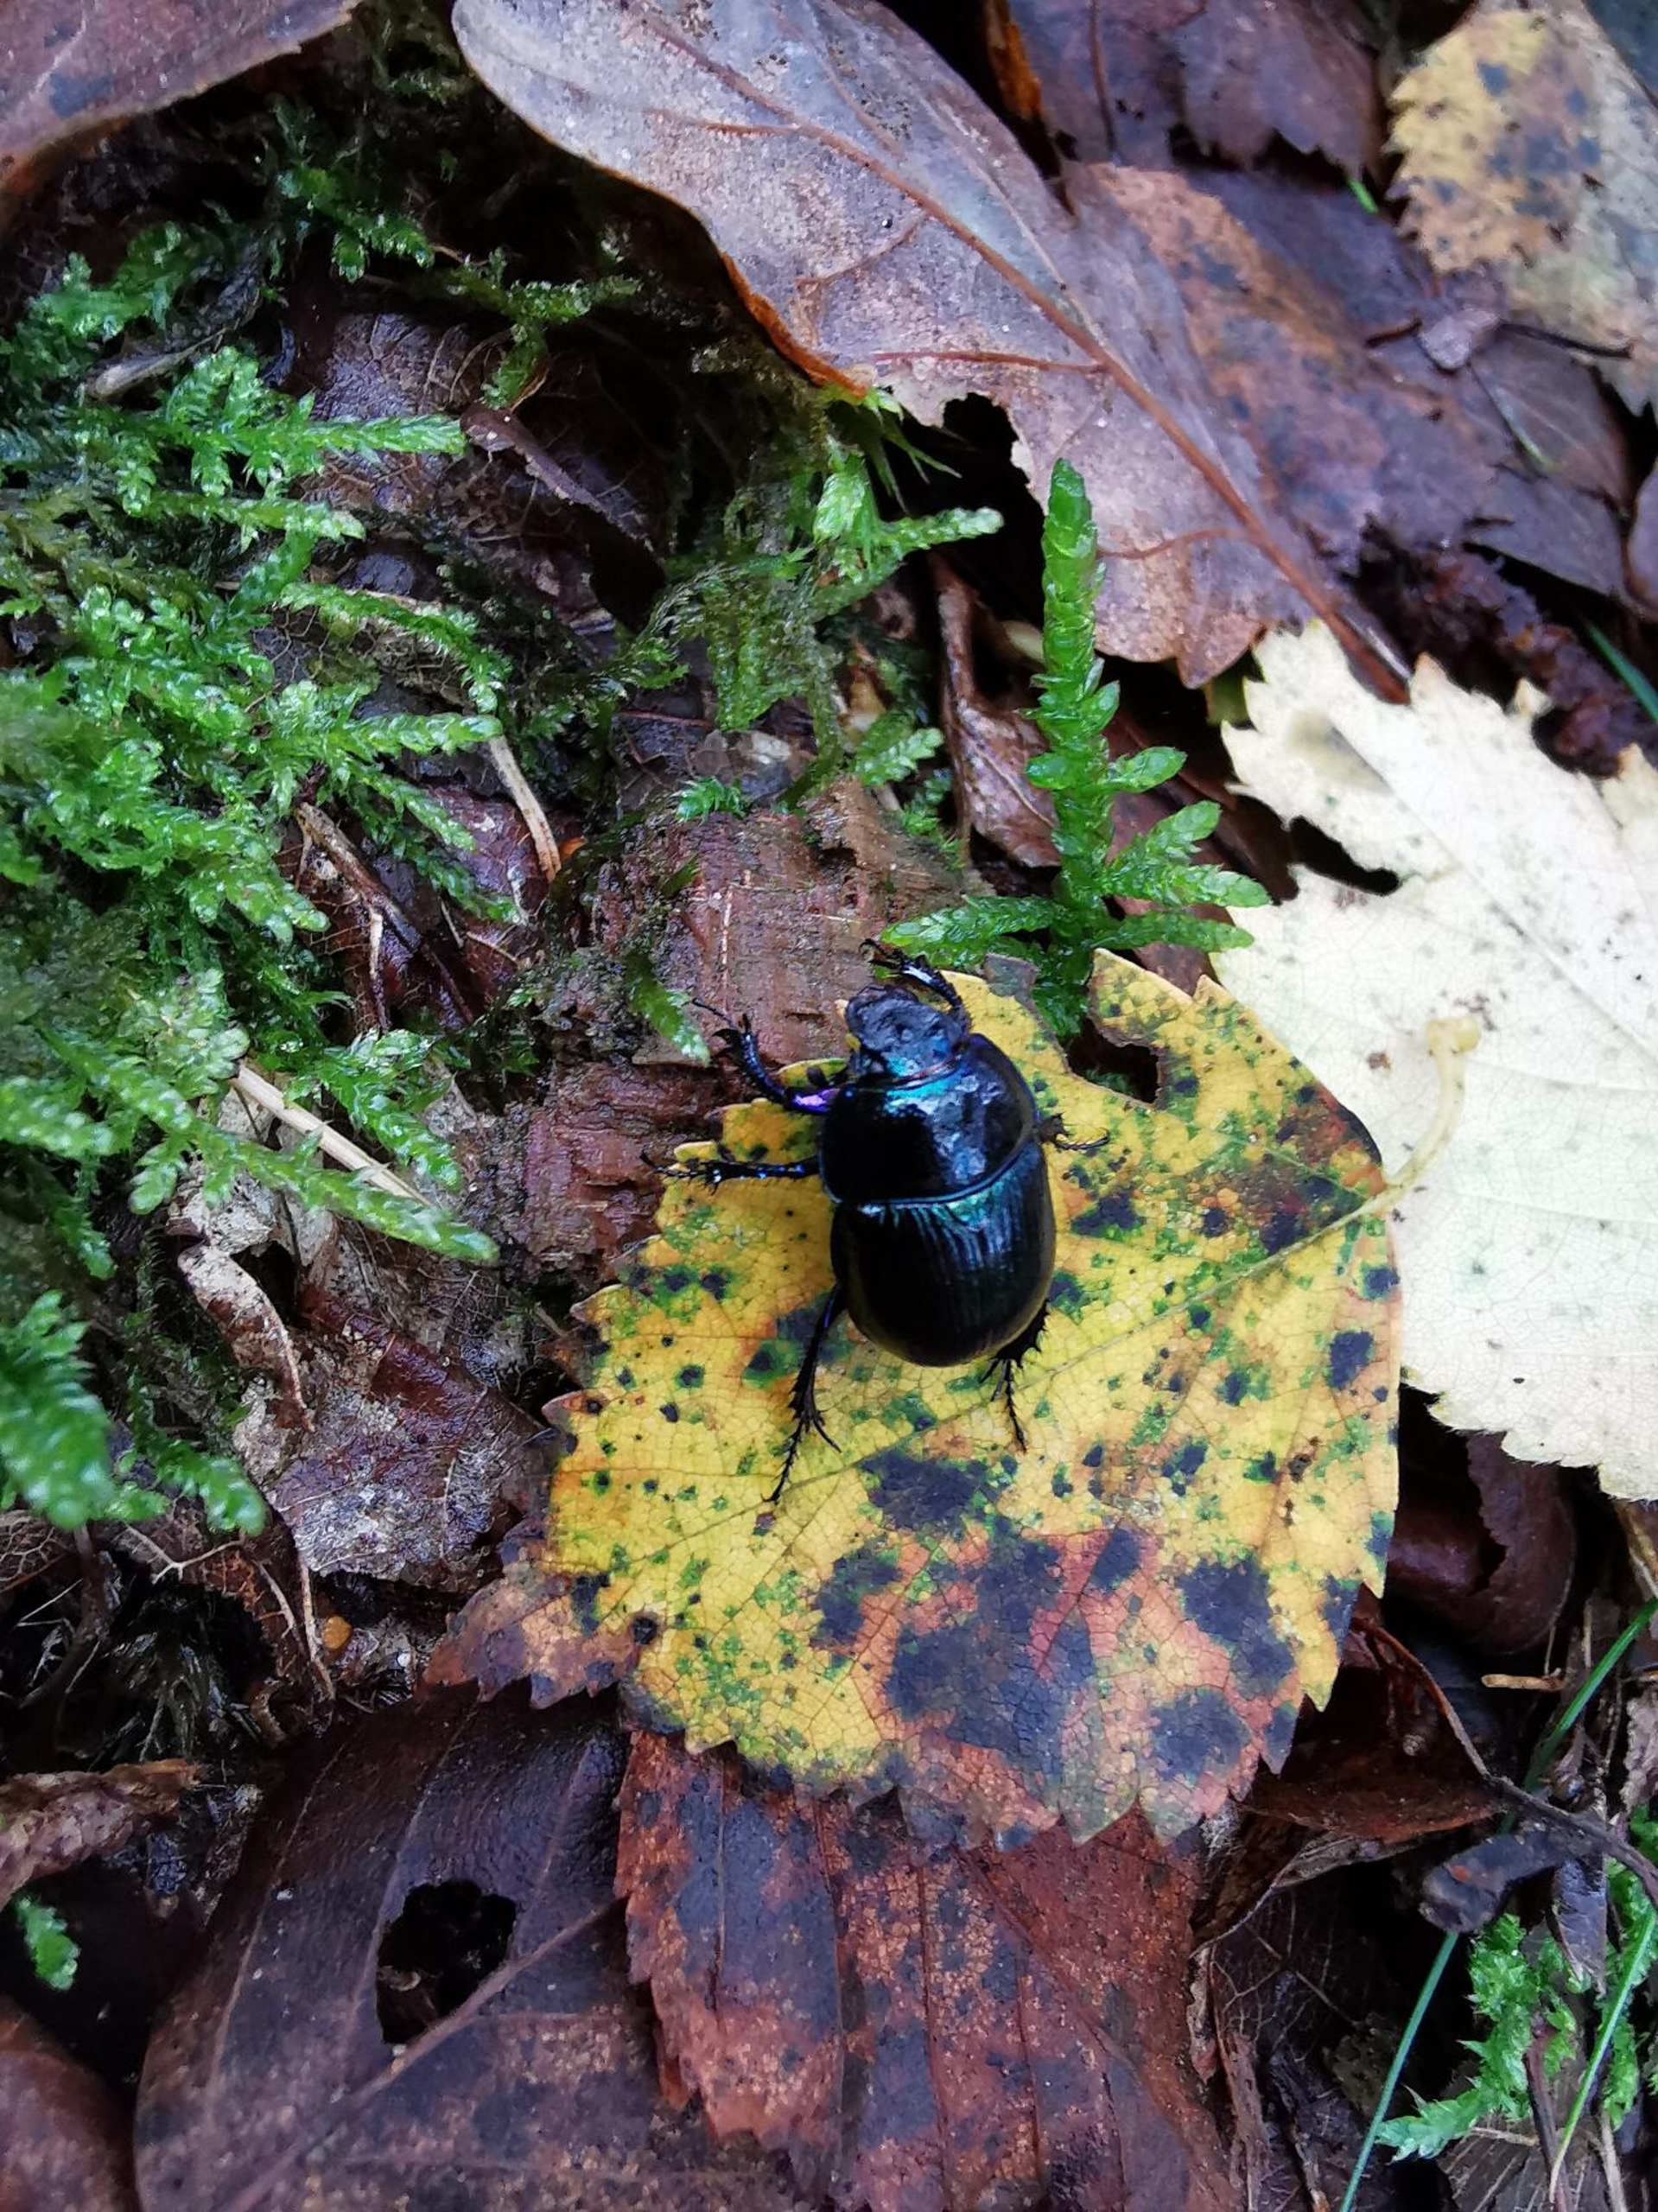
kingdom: Animalia
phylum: Arthropoda
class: Insecta
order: Coleoptera
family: Geotrupidae
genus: Anoplotrupes
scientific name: Anoplotrupes stercorosus
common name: Skovskarnbasse
